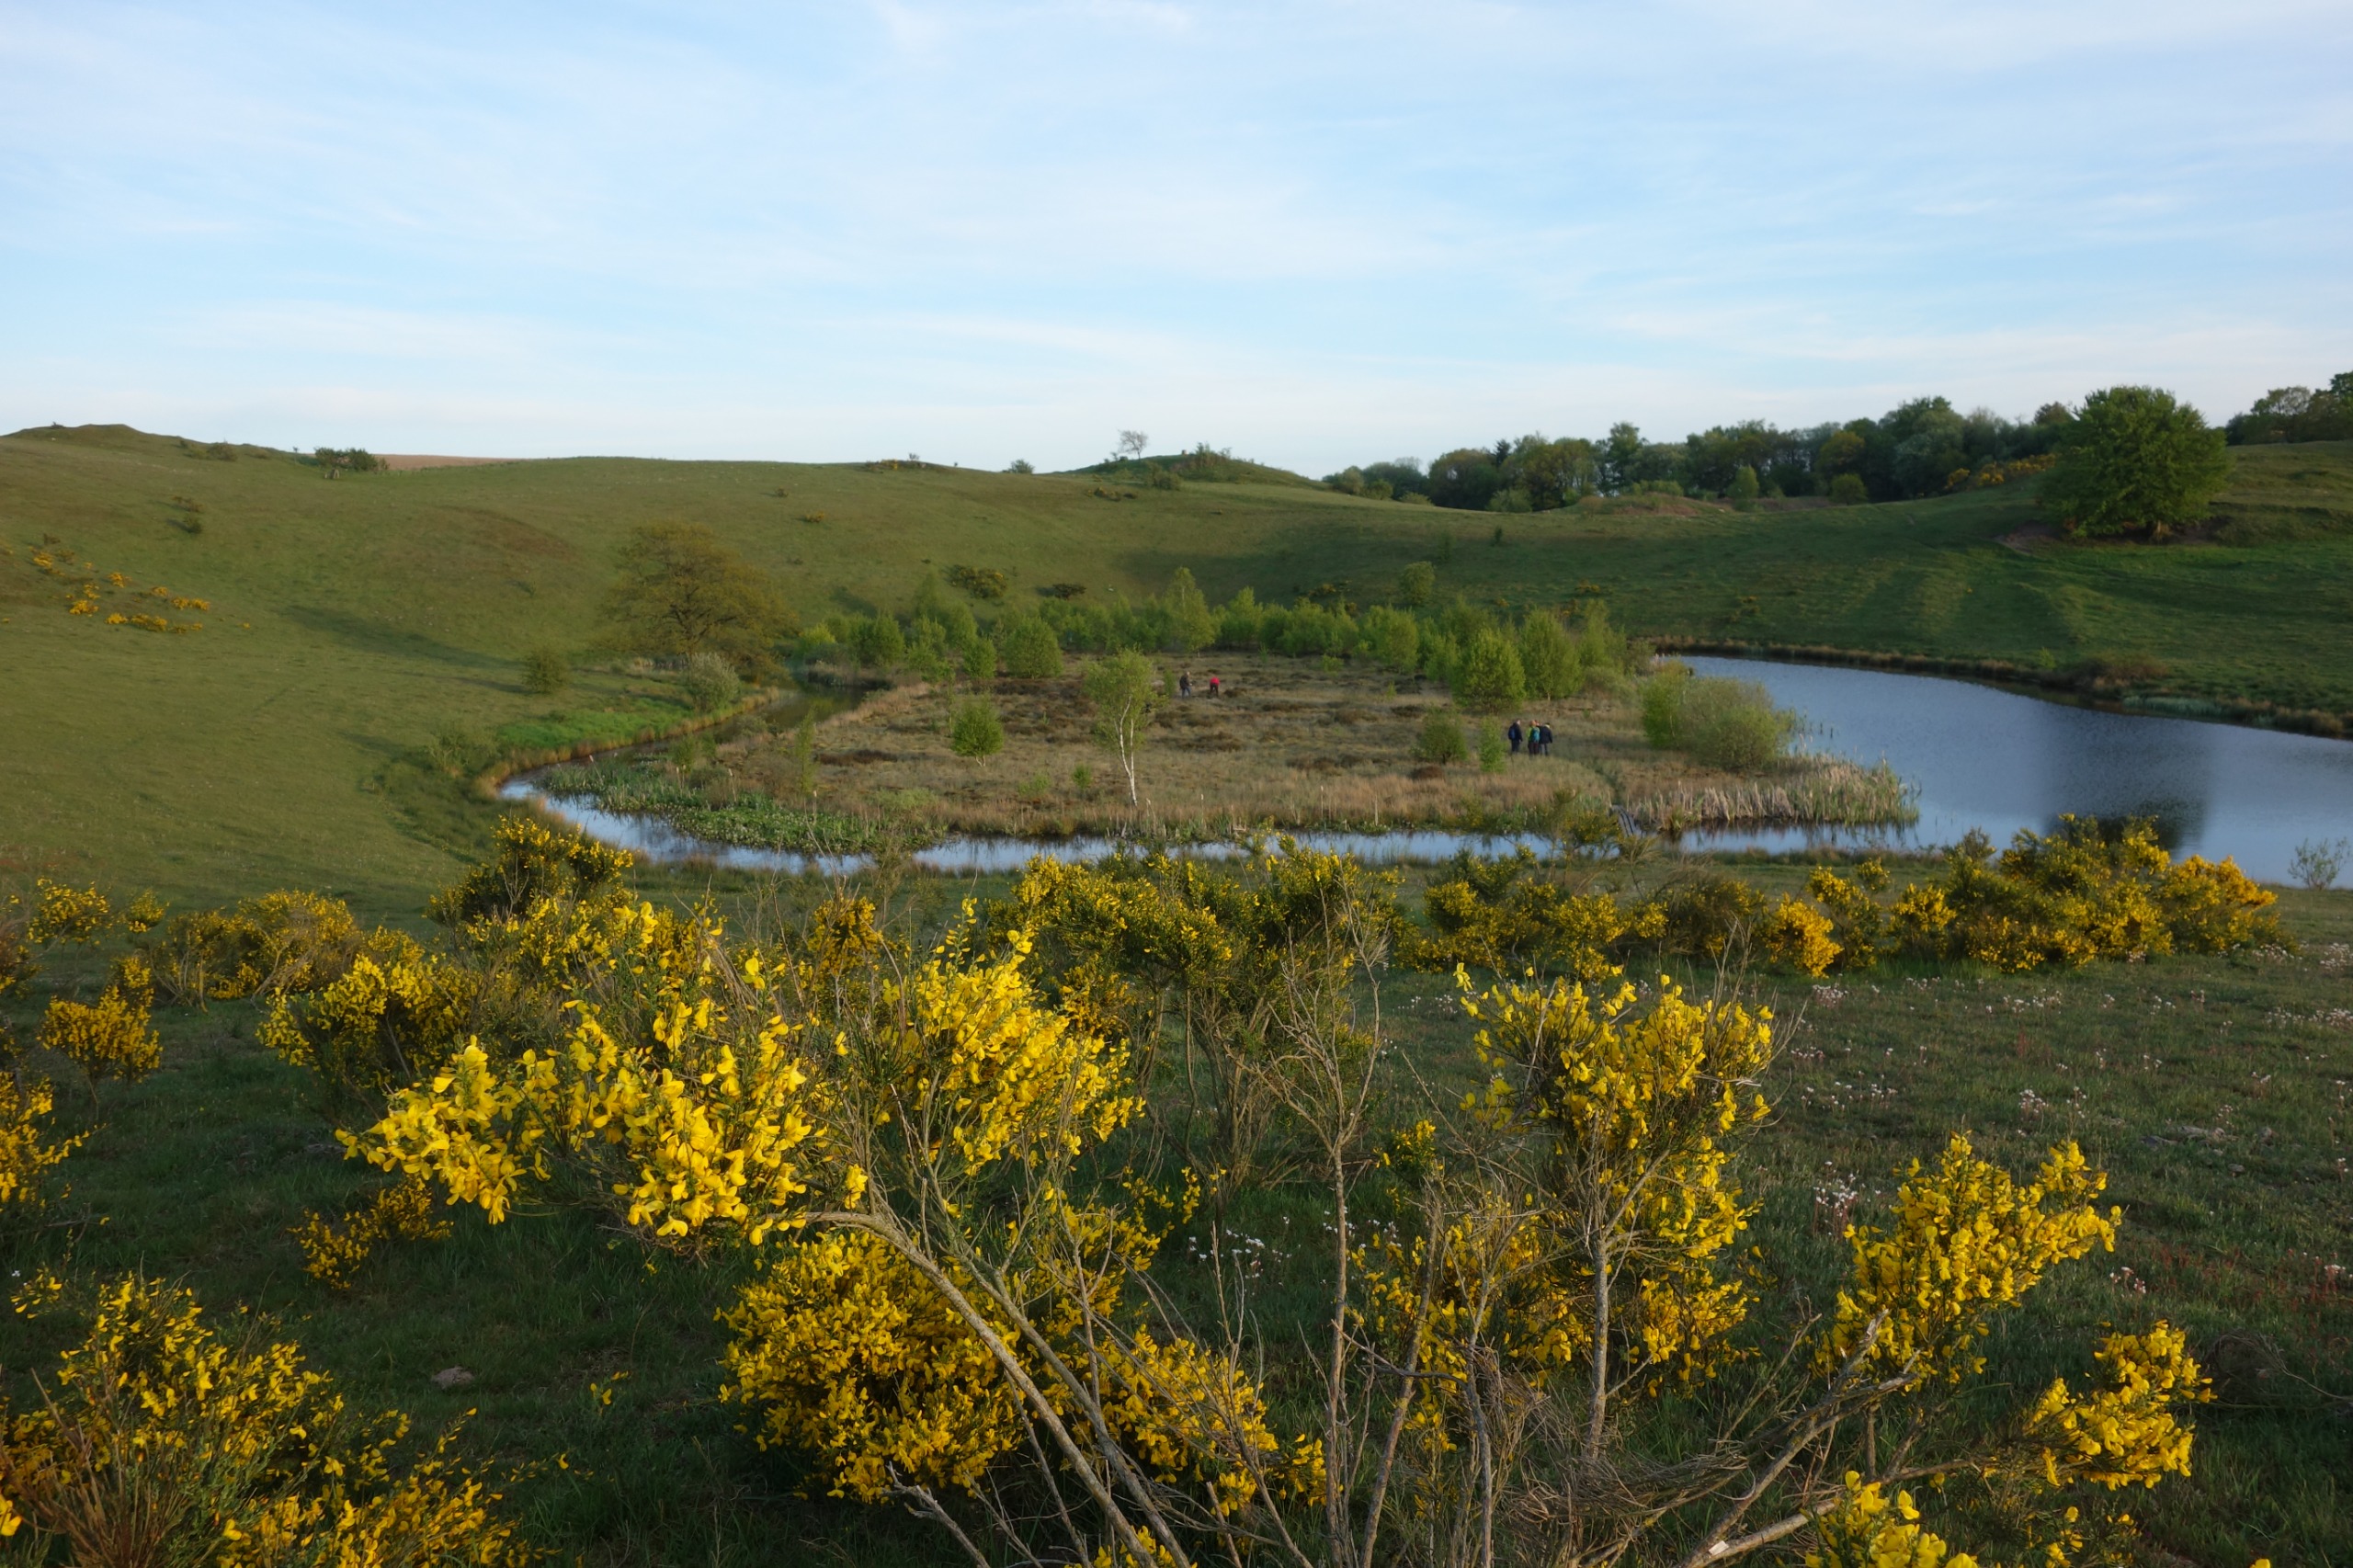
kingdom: Plantae
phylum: Tracheophyta
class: Magnoliopsida
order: Fabales
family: Fabaceae
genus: Cytisus
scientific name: Cytisus scoparius
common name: Almindelig gyvel
